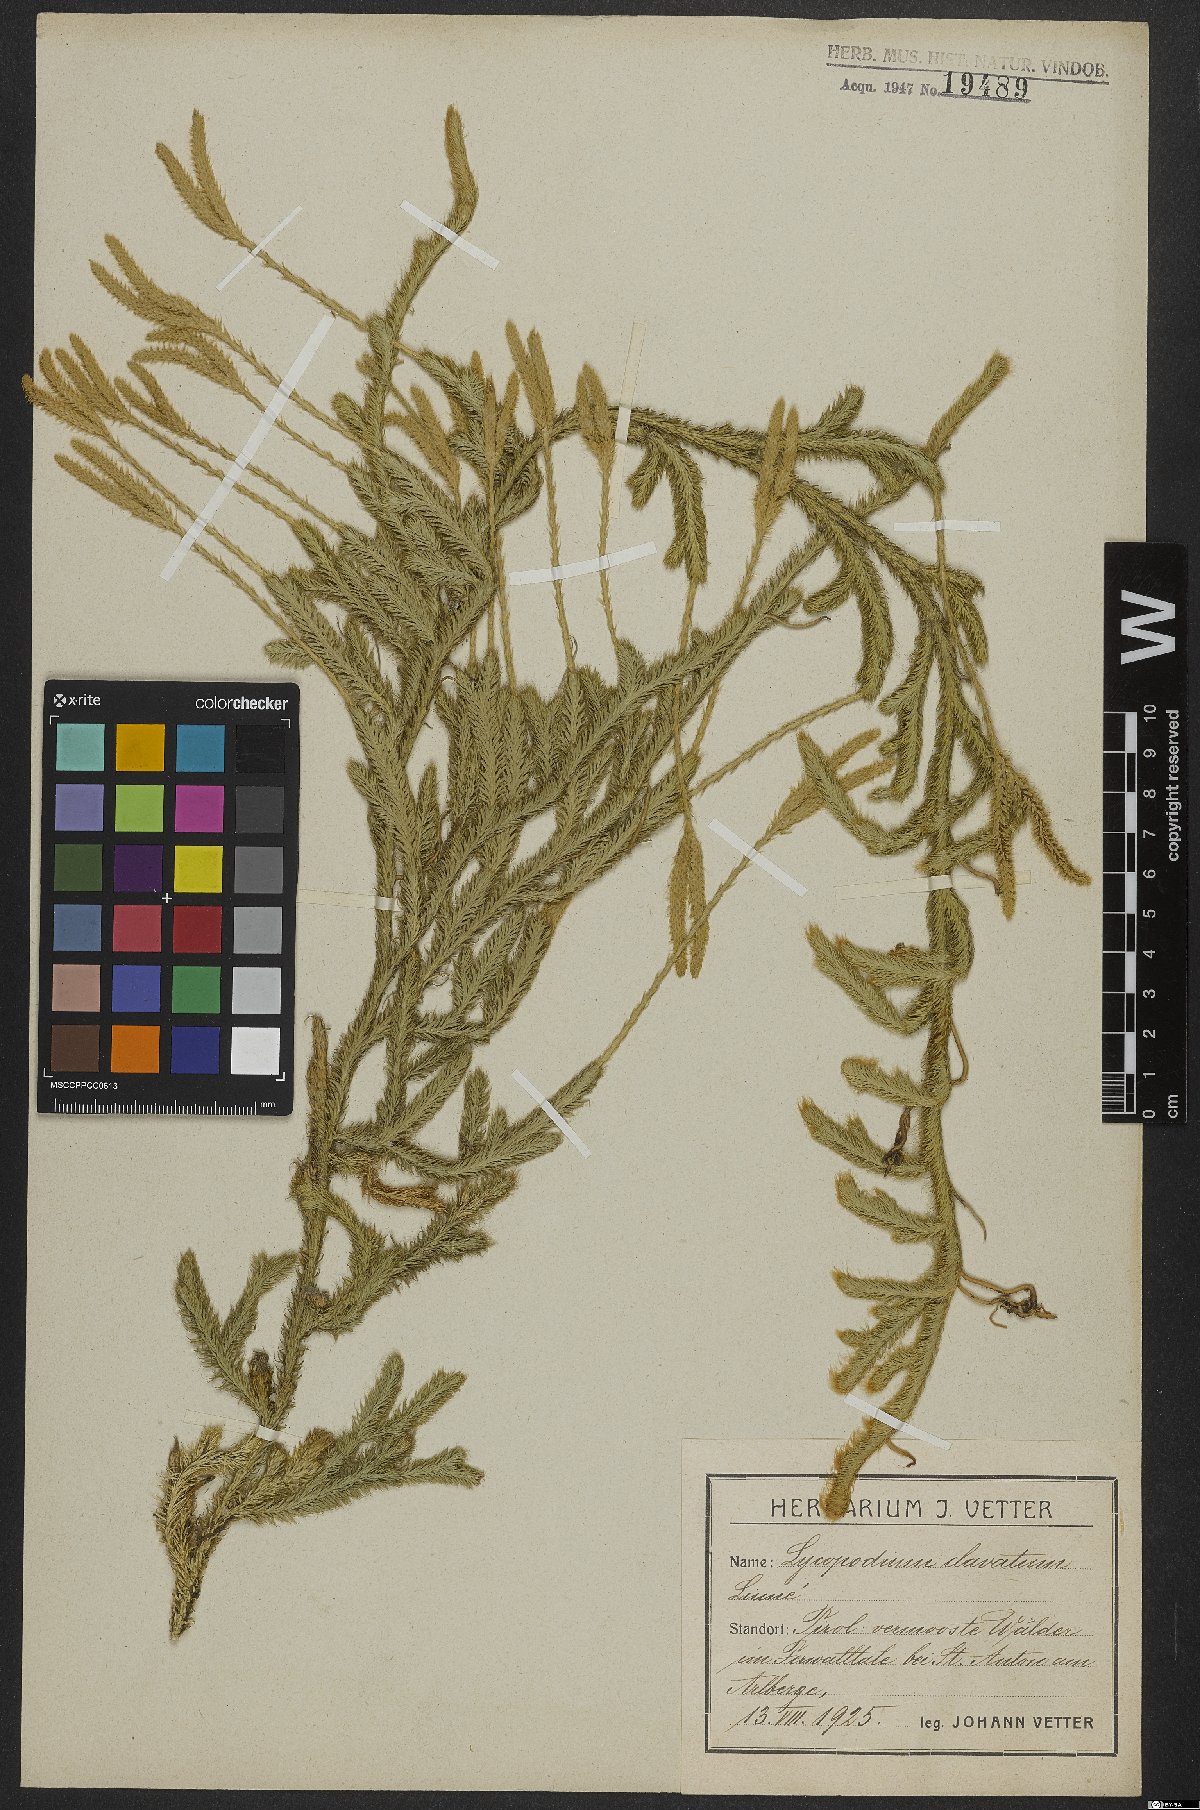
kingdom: Plantae
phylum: Tracheophyta
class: Lycopodiopsida
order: Lycopodiales
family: Lycopodiaceae
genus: Lycopodium
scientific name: Lycopodium clavatum
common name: Stag's-horn clubmoss
